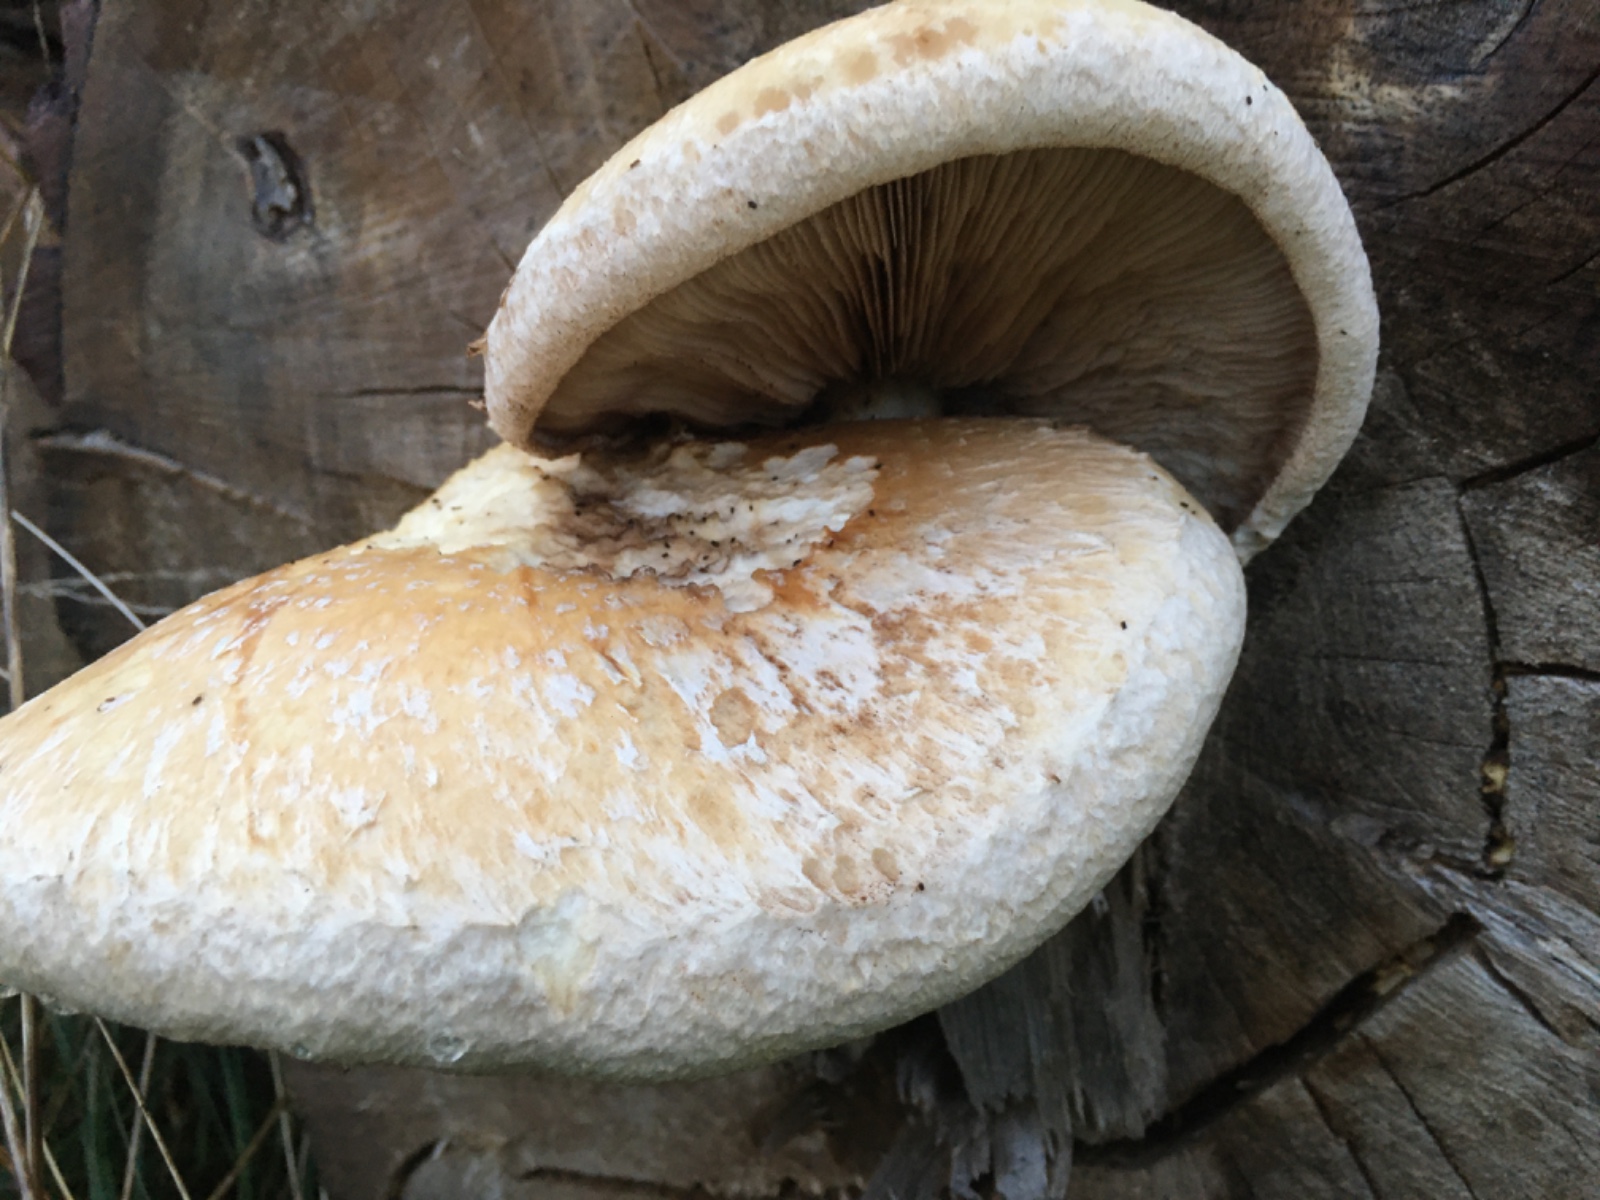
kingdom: Fungi
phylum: Basidiomycota
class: Agaricomycetes
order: Agaricales
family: Strophariaceae
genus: Pholiota
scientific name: Pholiota populnea
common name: poppel-kæmpeskælhat
